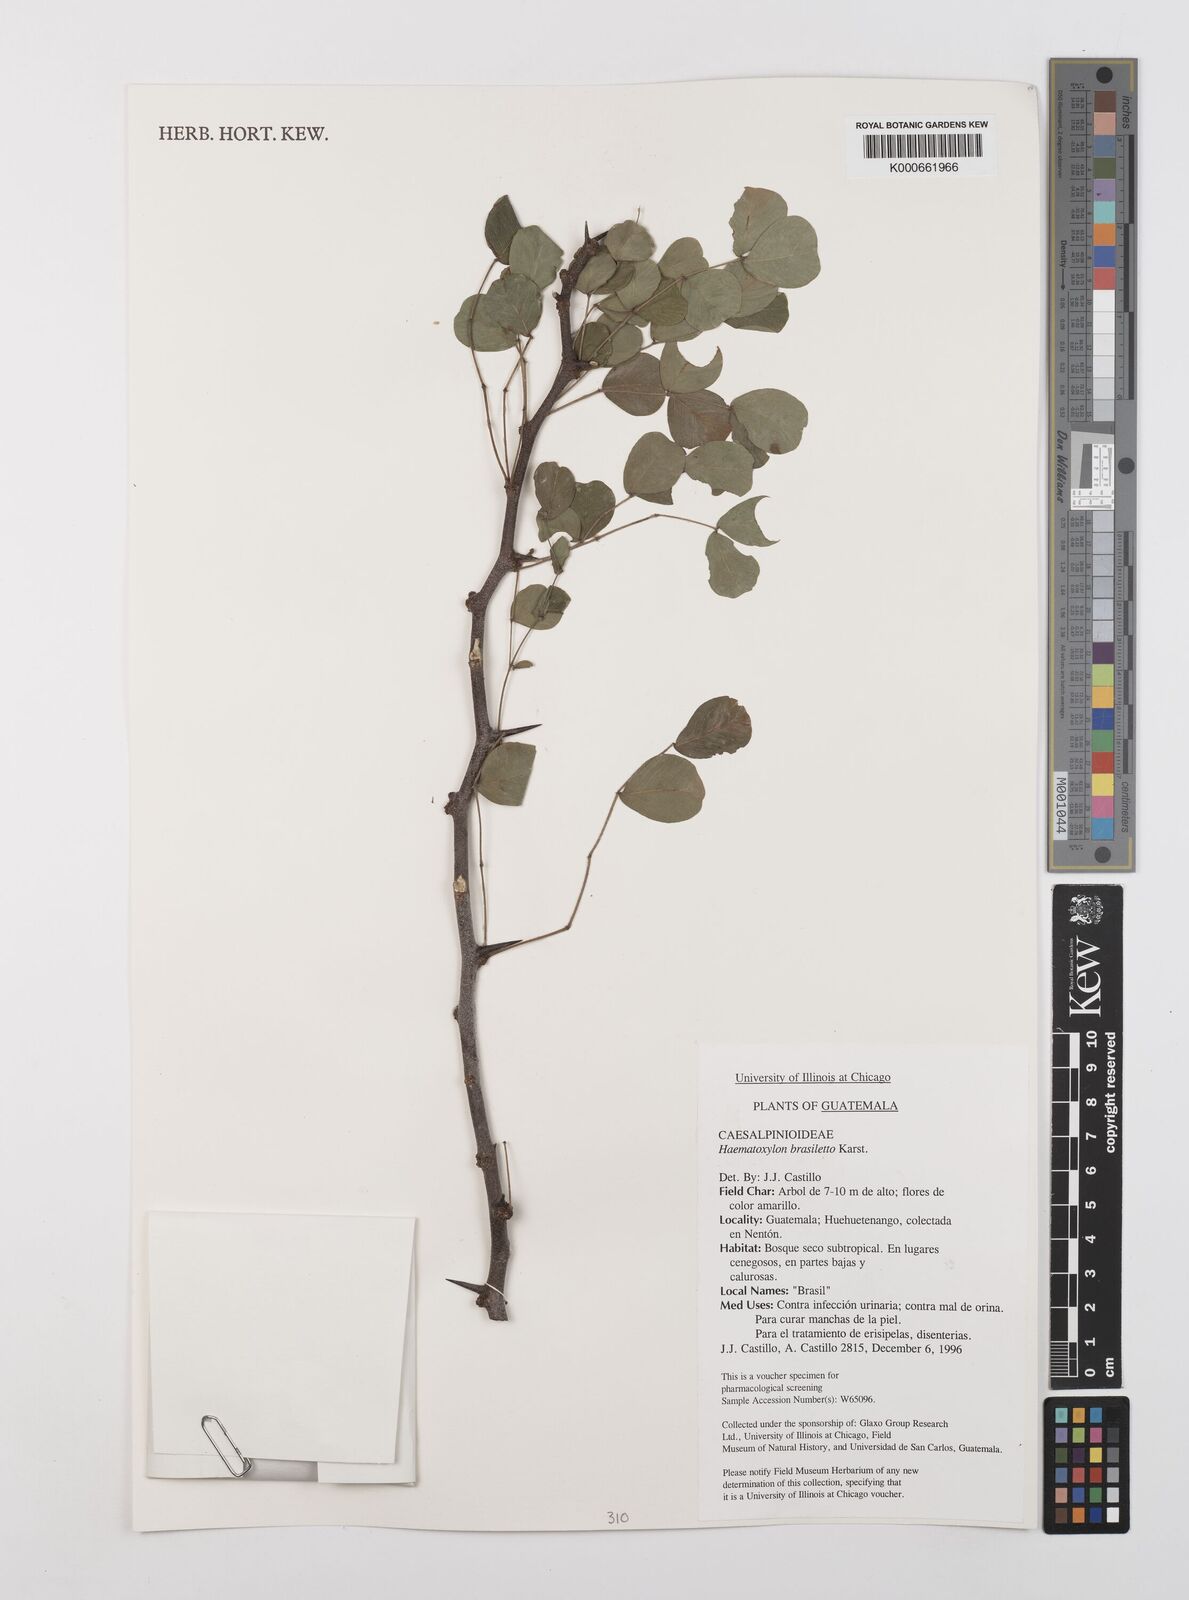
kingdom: Plantae
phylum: Tracheophyta
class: Magnoliopsida
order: Fabales
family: Fabaceae
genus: Haematoxylum
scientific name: Haematoxylum brasiletto
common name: Peachwood
